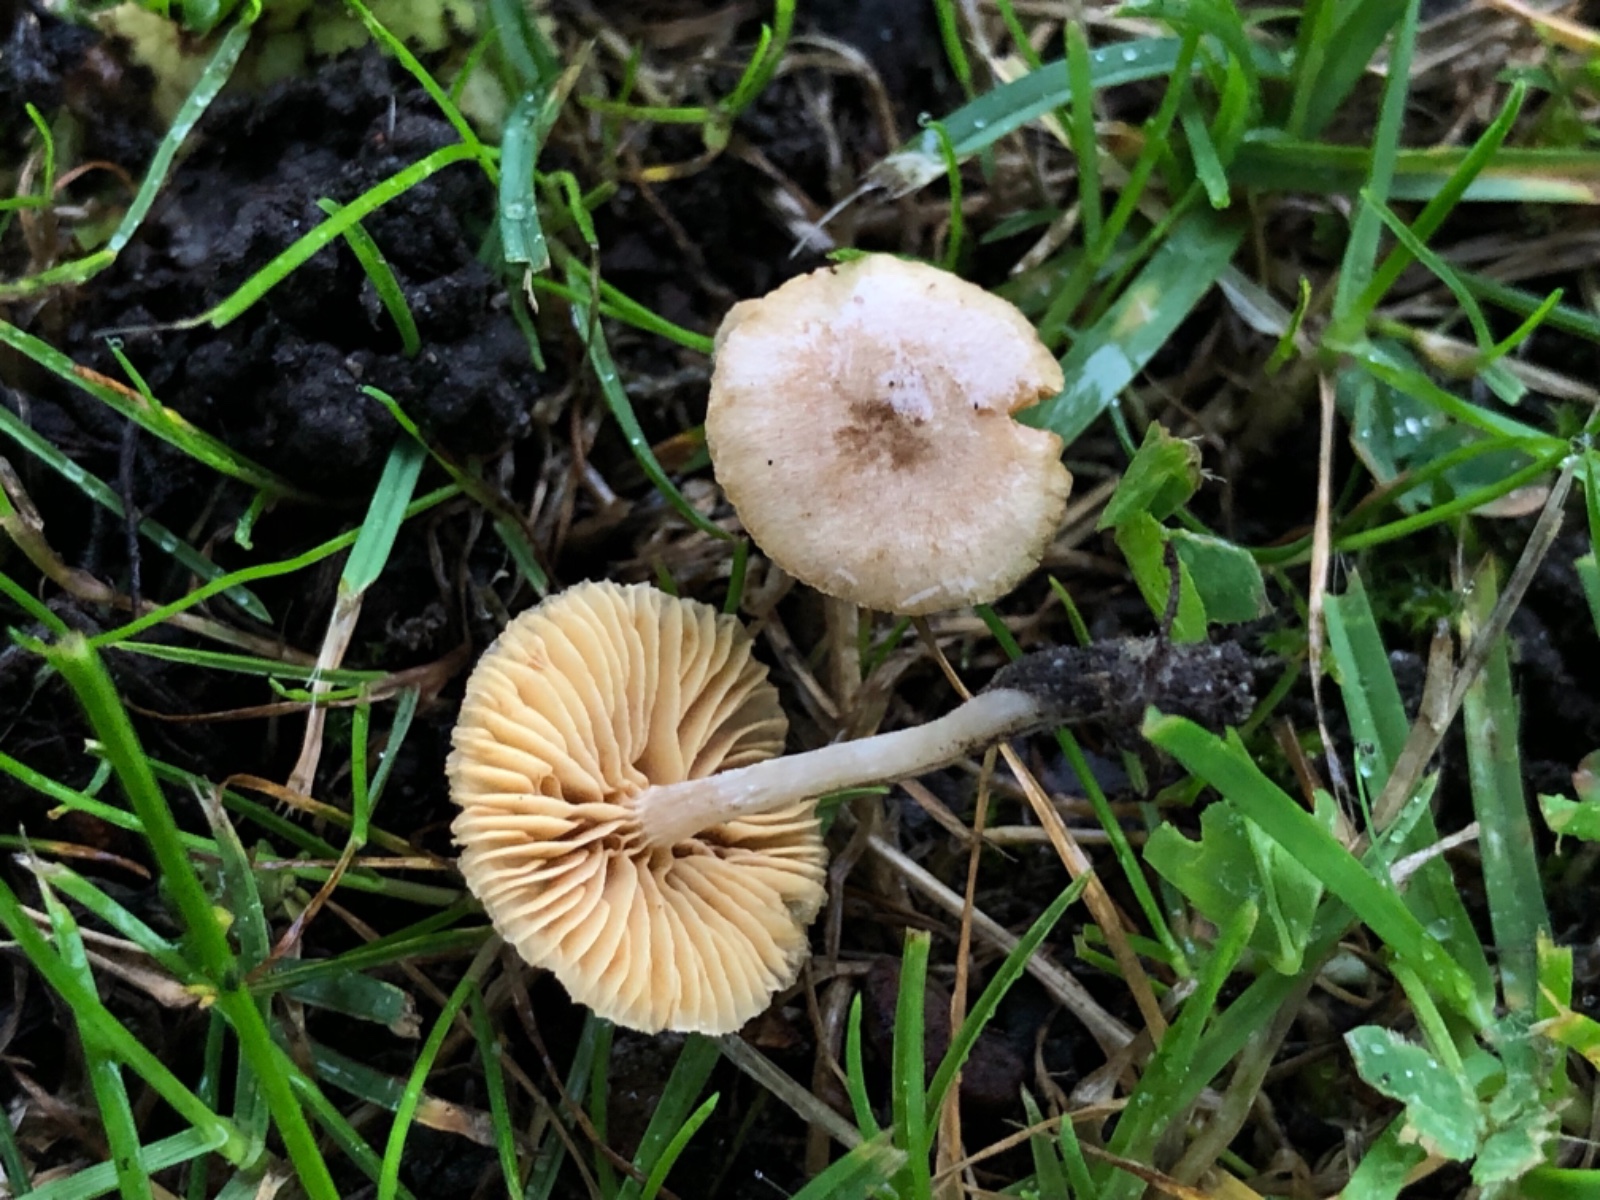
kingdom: Fungi
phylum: Basidiomycota
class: Agaricomycetes
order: Agaricales
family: Tubariaceae
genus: Tubaria
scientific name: Tubaria dispersa
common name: tjørne-fnughat
